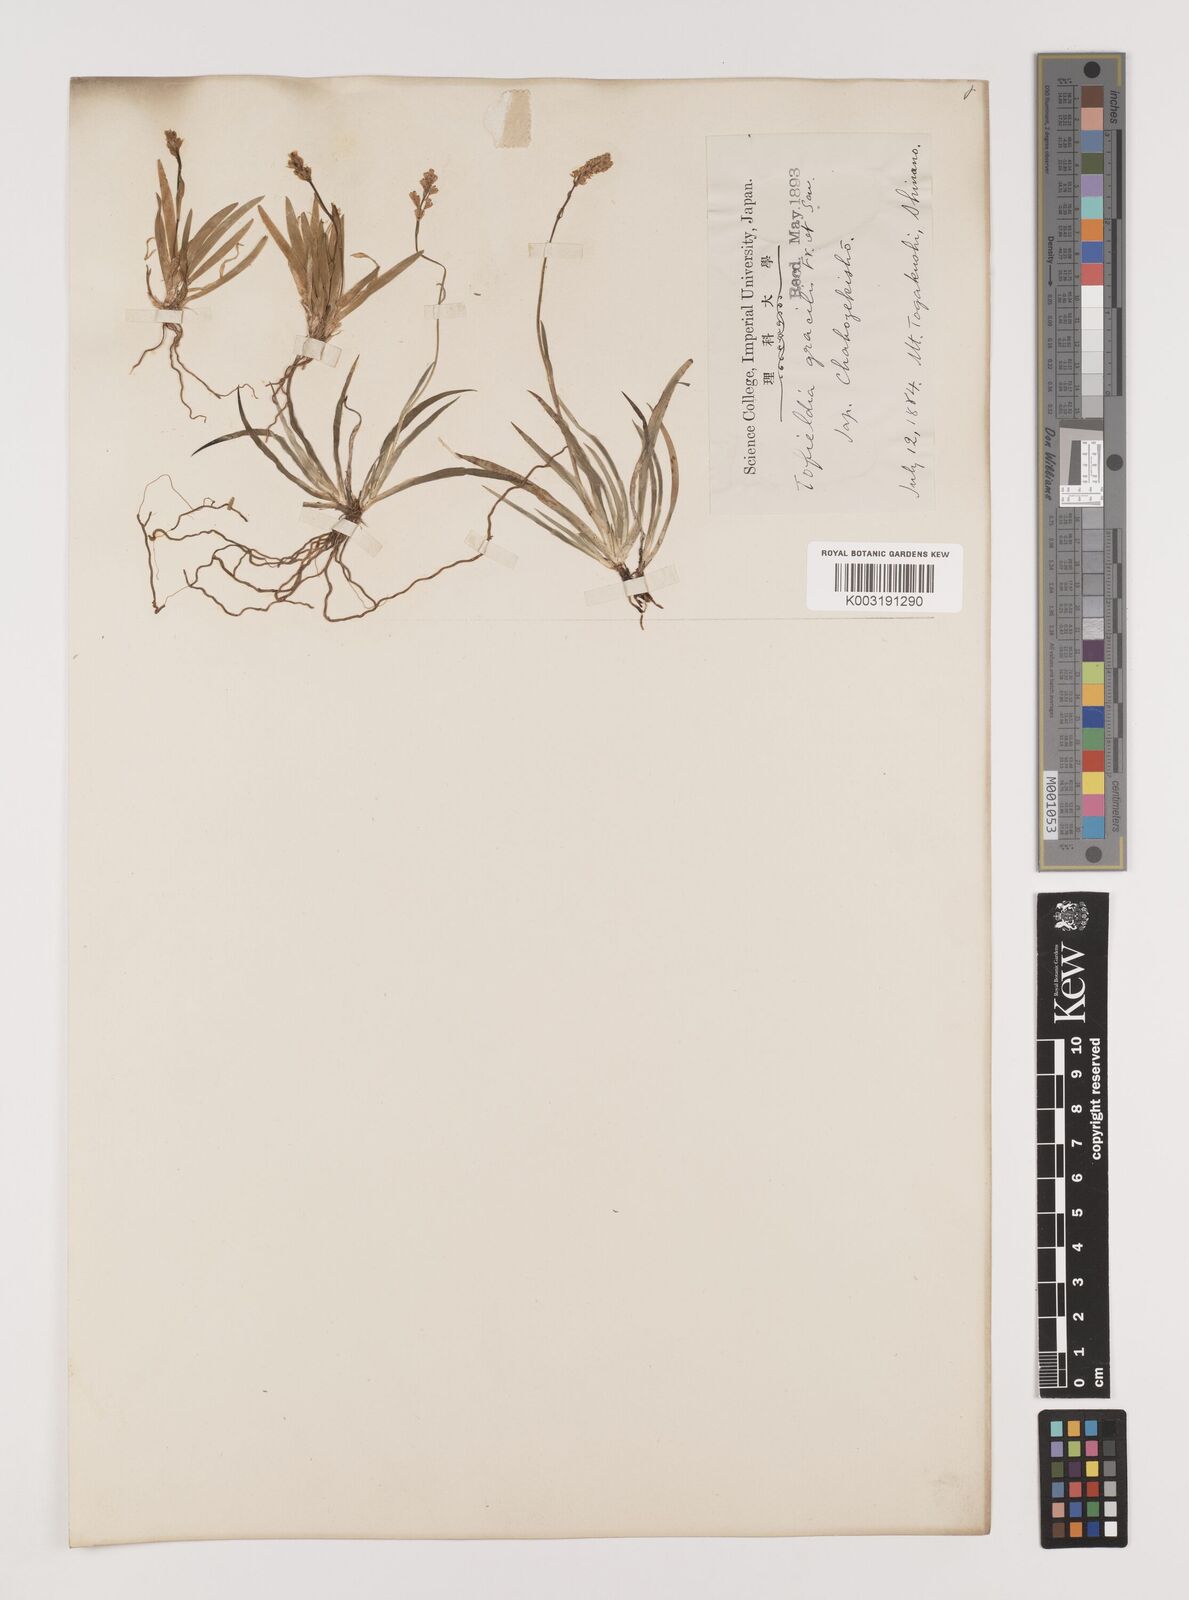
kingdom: Plantae
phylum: Tracheophyta
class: Liliopsida
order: Alismatales
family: Tofieldiaceae
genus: Tofieldia
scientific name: Tofieldia coccinea
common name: Northern false asphodel
